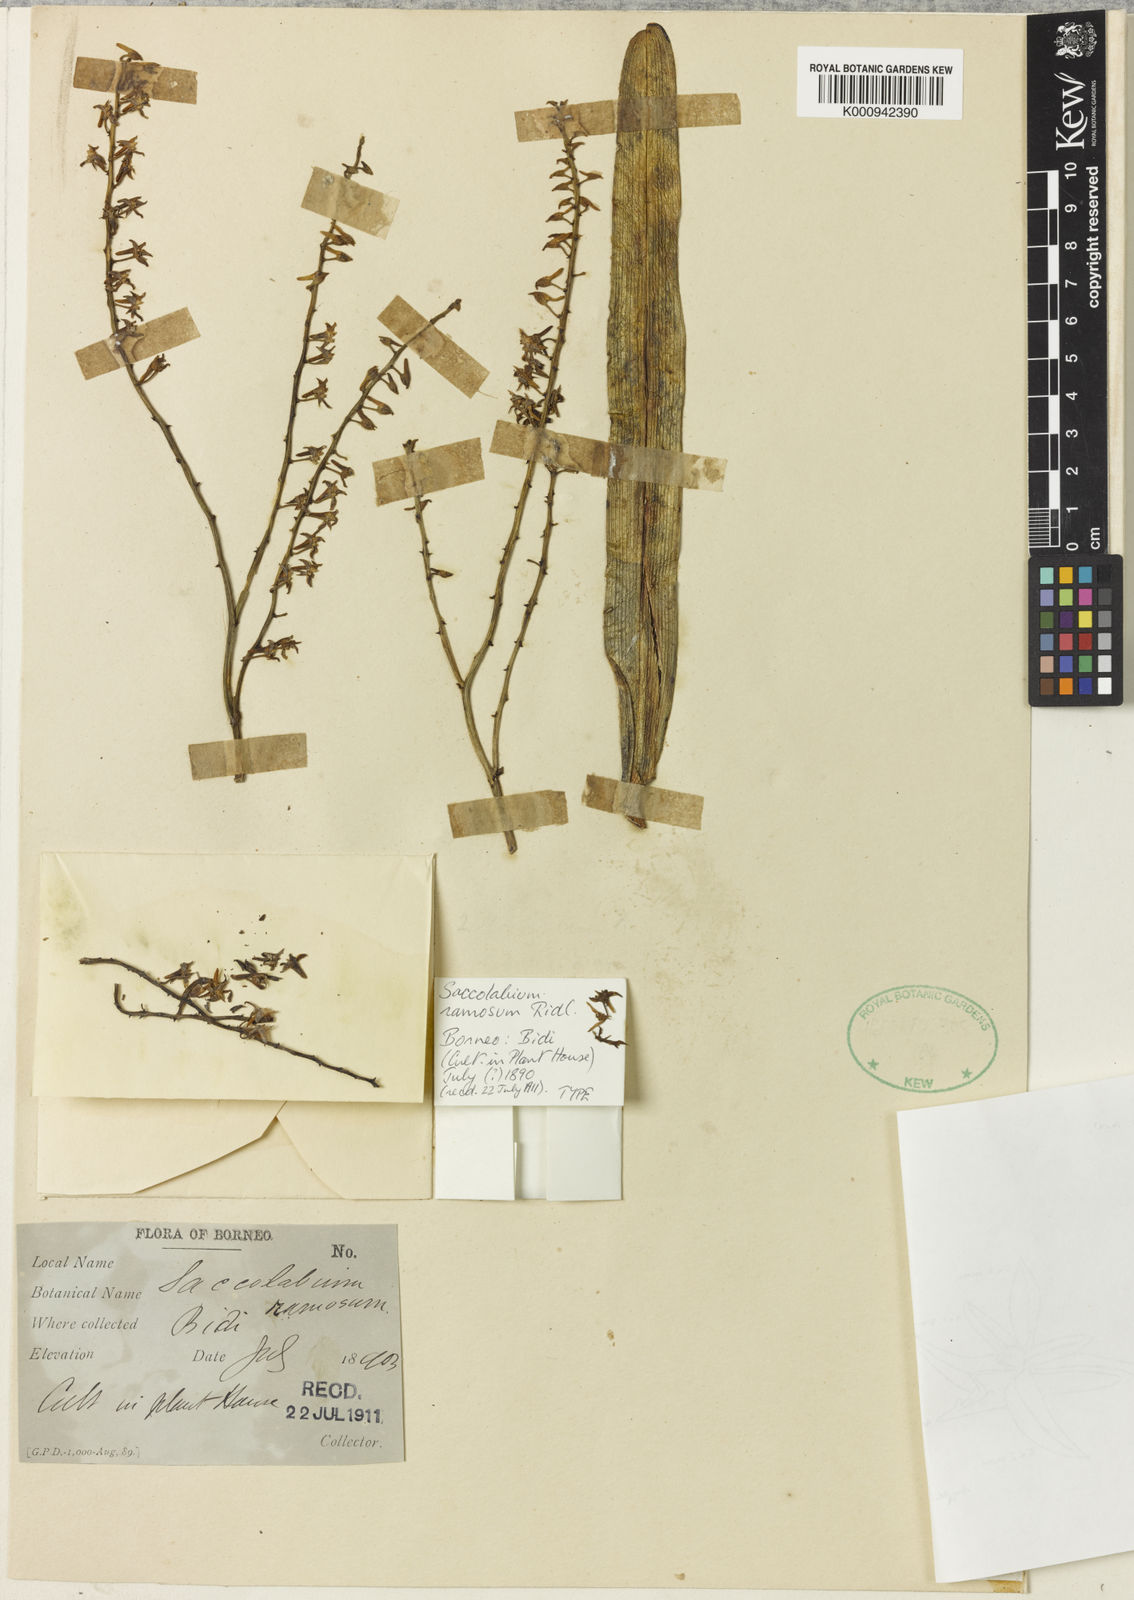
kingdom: Plantae
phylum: Tracheophyta
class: Liliopsida
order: Asparagales
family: Orchidaceae
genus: Cleisostoma
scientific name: Cleisostoma inflatum
